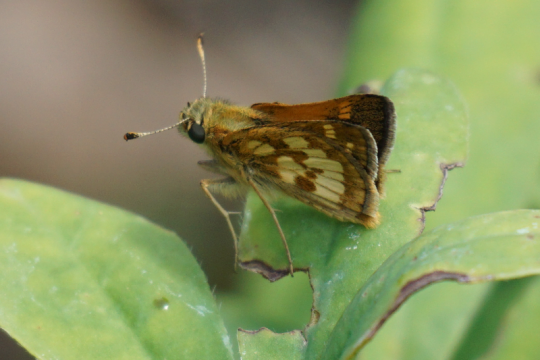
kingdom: Animalia
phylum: Arthropoda
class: Insecta
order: Lepidoptera
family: Hesperiidae
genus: Polites
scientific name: Polites coras
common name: Peck's Skipper
